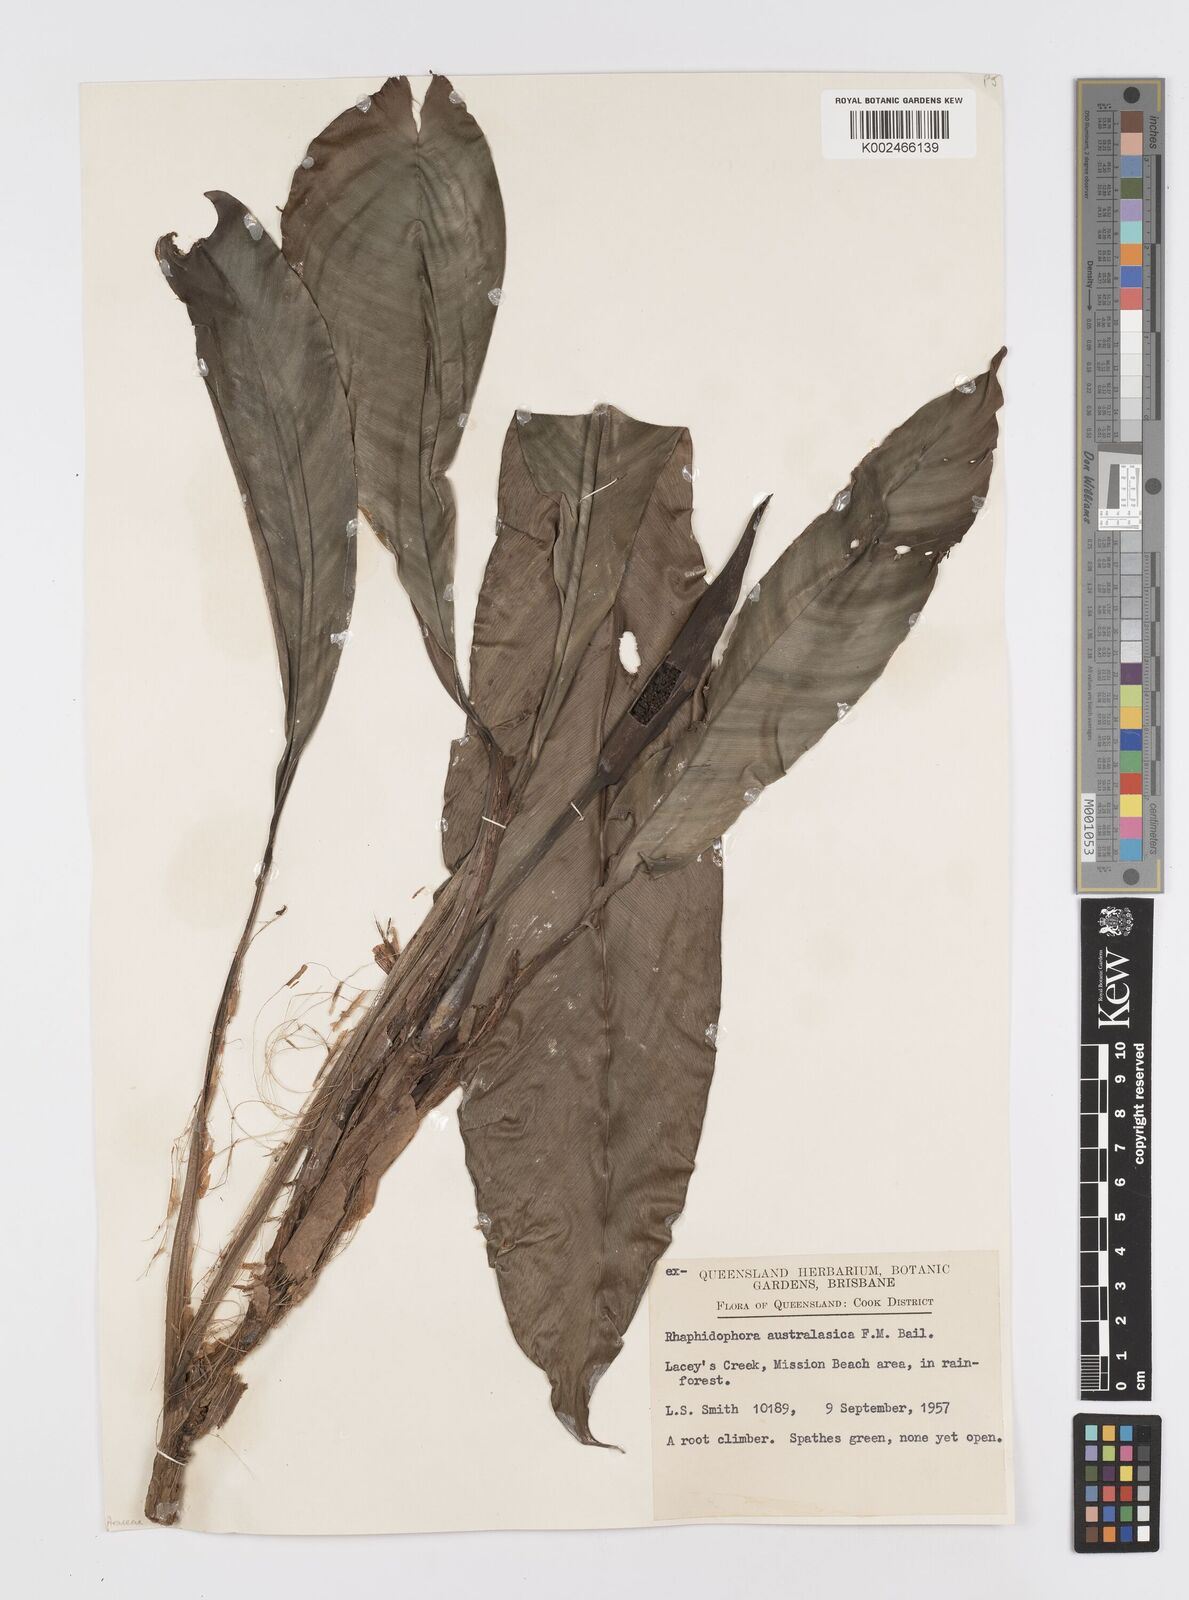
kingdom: Plantae
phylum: Tracheophyta
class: Liliopsida
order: Alismatales
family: Araceae
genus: Rhaphidophora
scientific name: Rhaphidophora australasica
